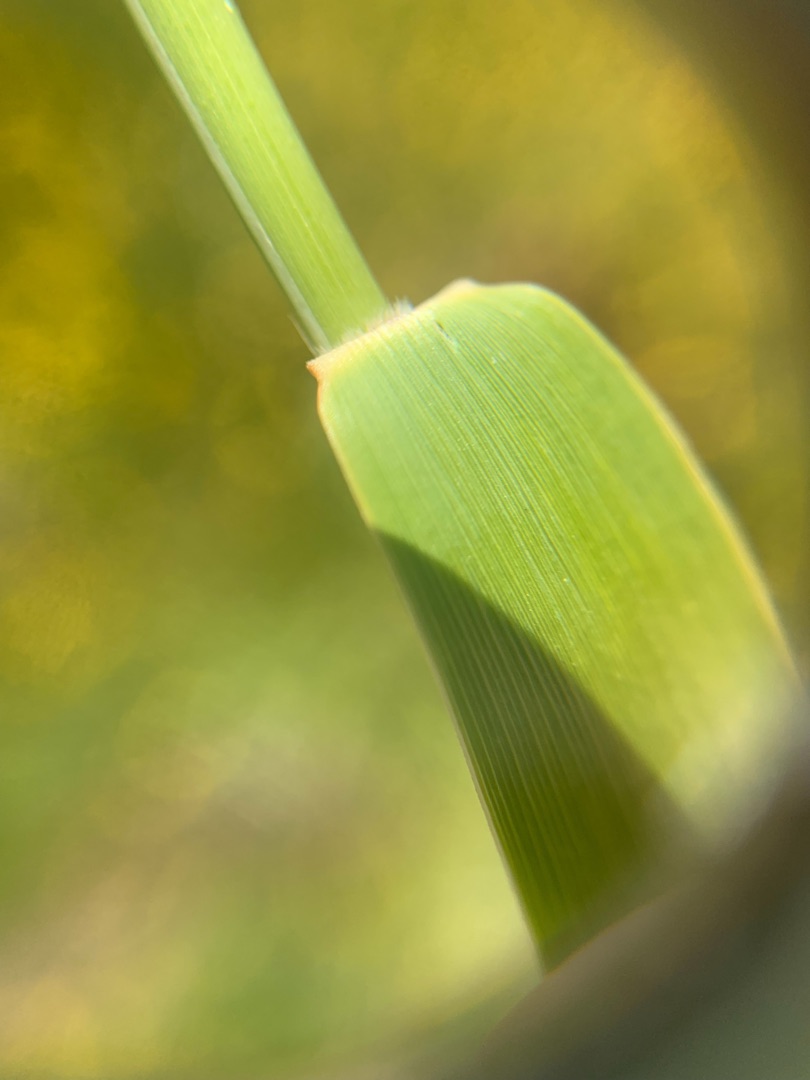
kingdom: Plantae
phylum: Tracheophyta
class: Liliopsida
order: Poales
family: Poaceae
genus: Phragmites
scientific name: Phragmites australis
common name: Tagrør
